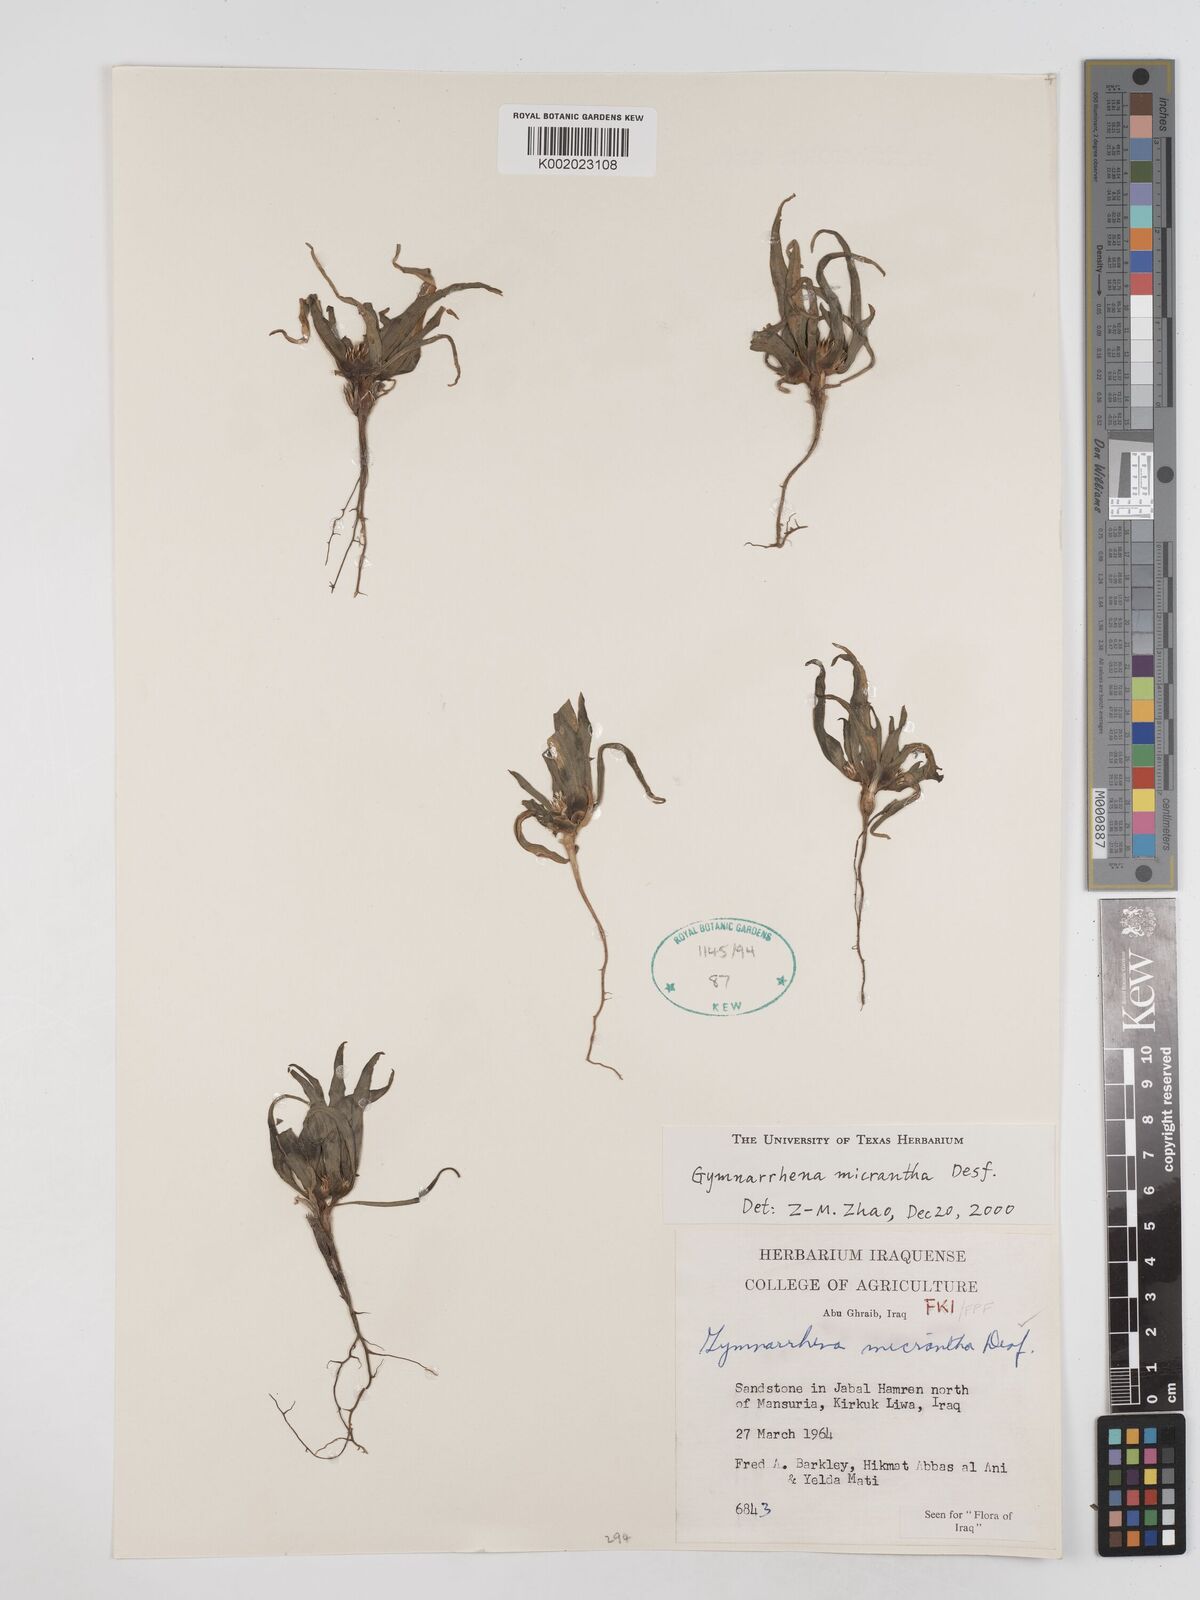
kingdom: Plantae
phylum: Tracheophyta
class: Magnoliopsida
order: Asterales
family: Asteraceae
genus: Gymnarrhena
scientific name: Gymnarrhena micrantha
